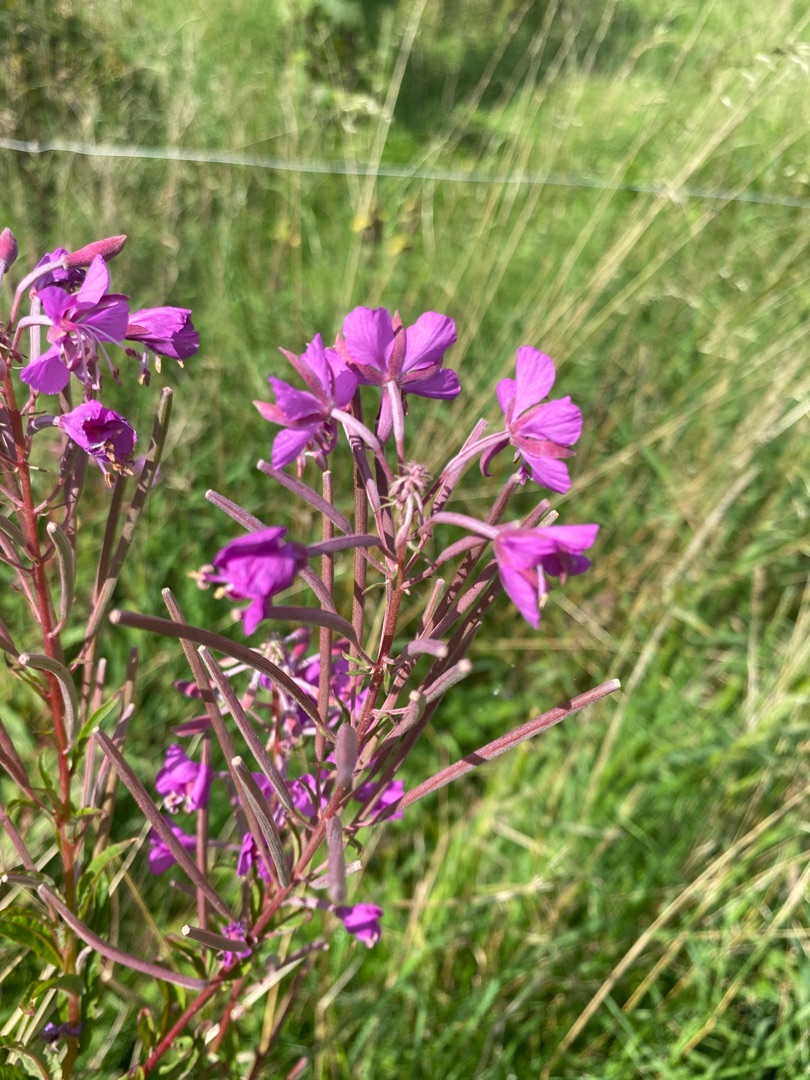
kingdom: Plantae
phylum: Tracheophyta
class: Magnoliopsida
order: Myrtales
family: Onagraceae
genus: Chamaenerion
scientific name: Chamaenerion angustifolium
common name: Gederams
